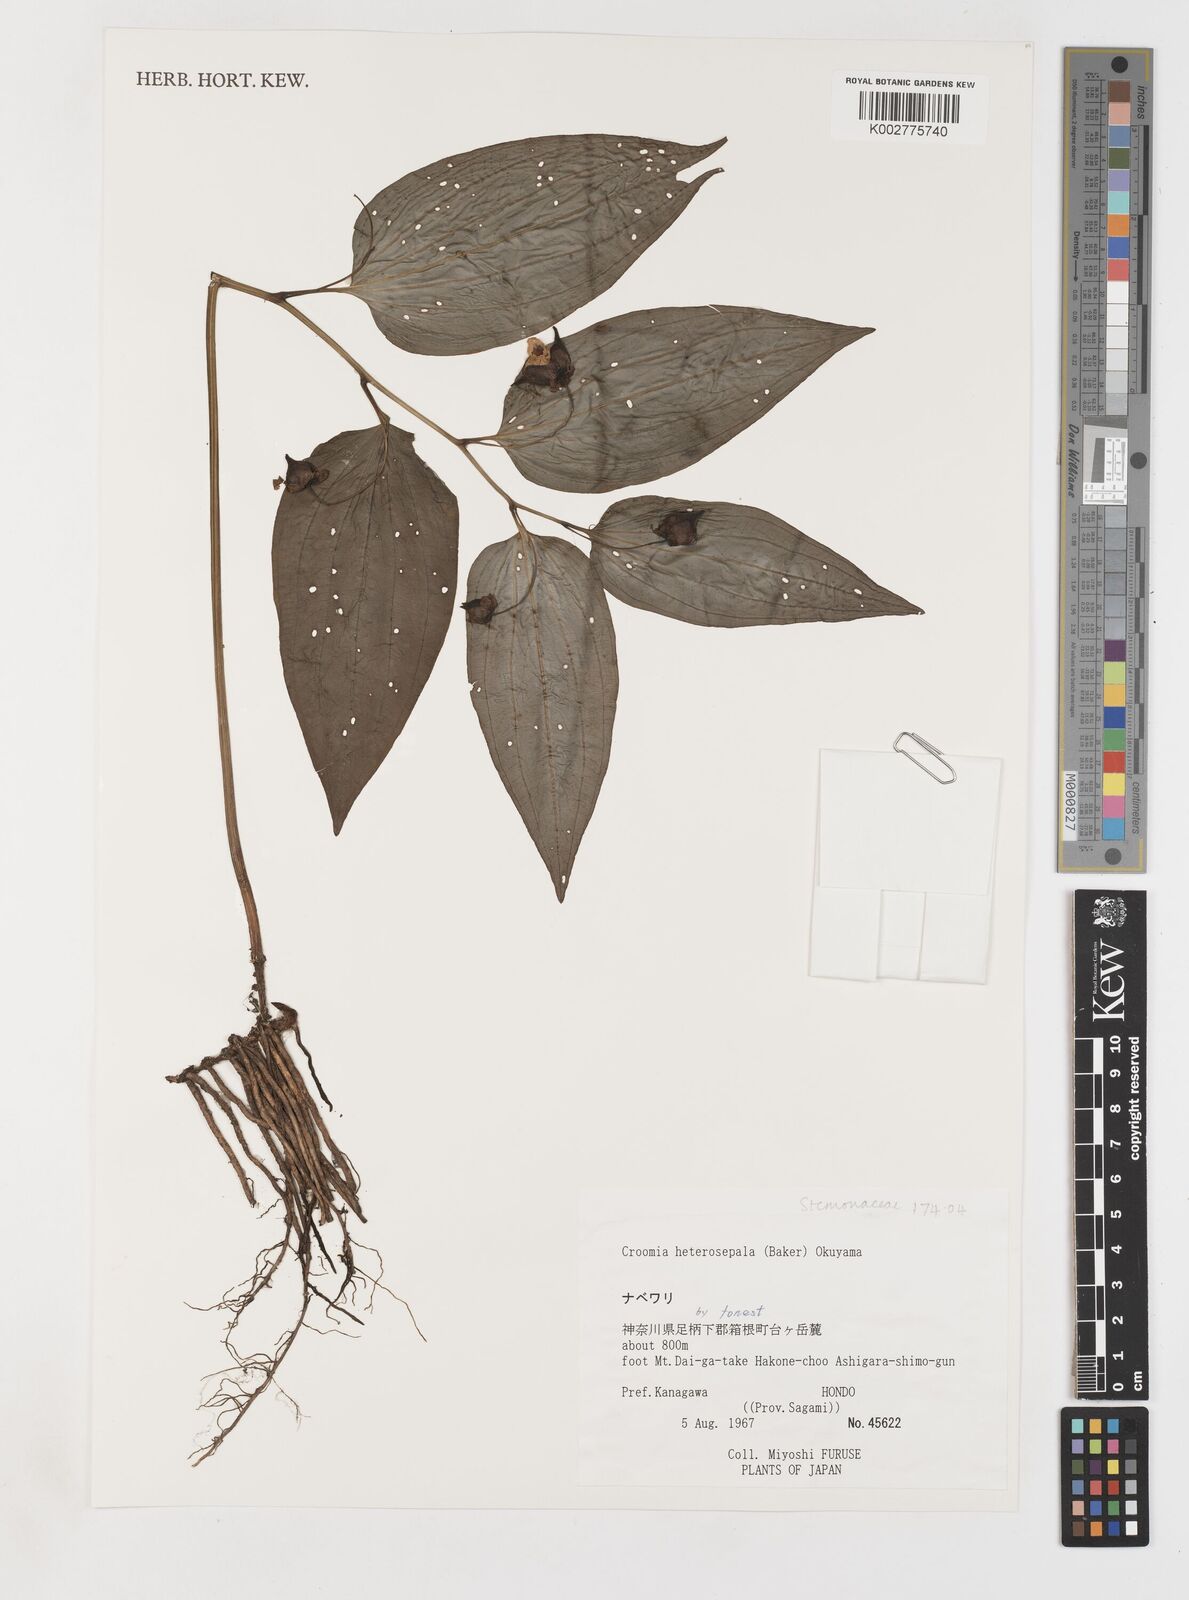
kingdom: Plantae
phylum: Tracheophyta
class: Liliopsida
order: Pandanales
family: Stemonaceae
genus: Croomia
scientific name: Croomia heterosepala
